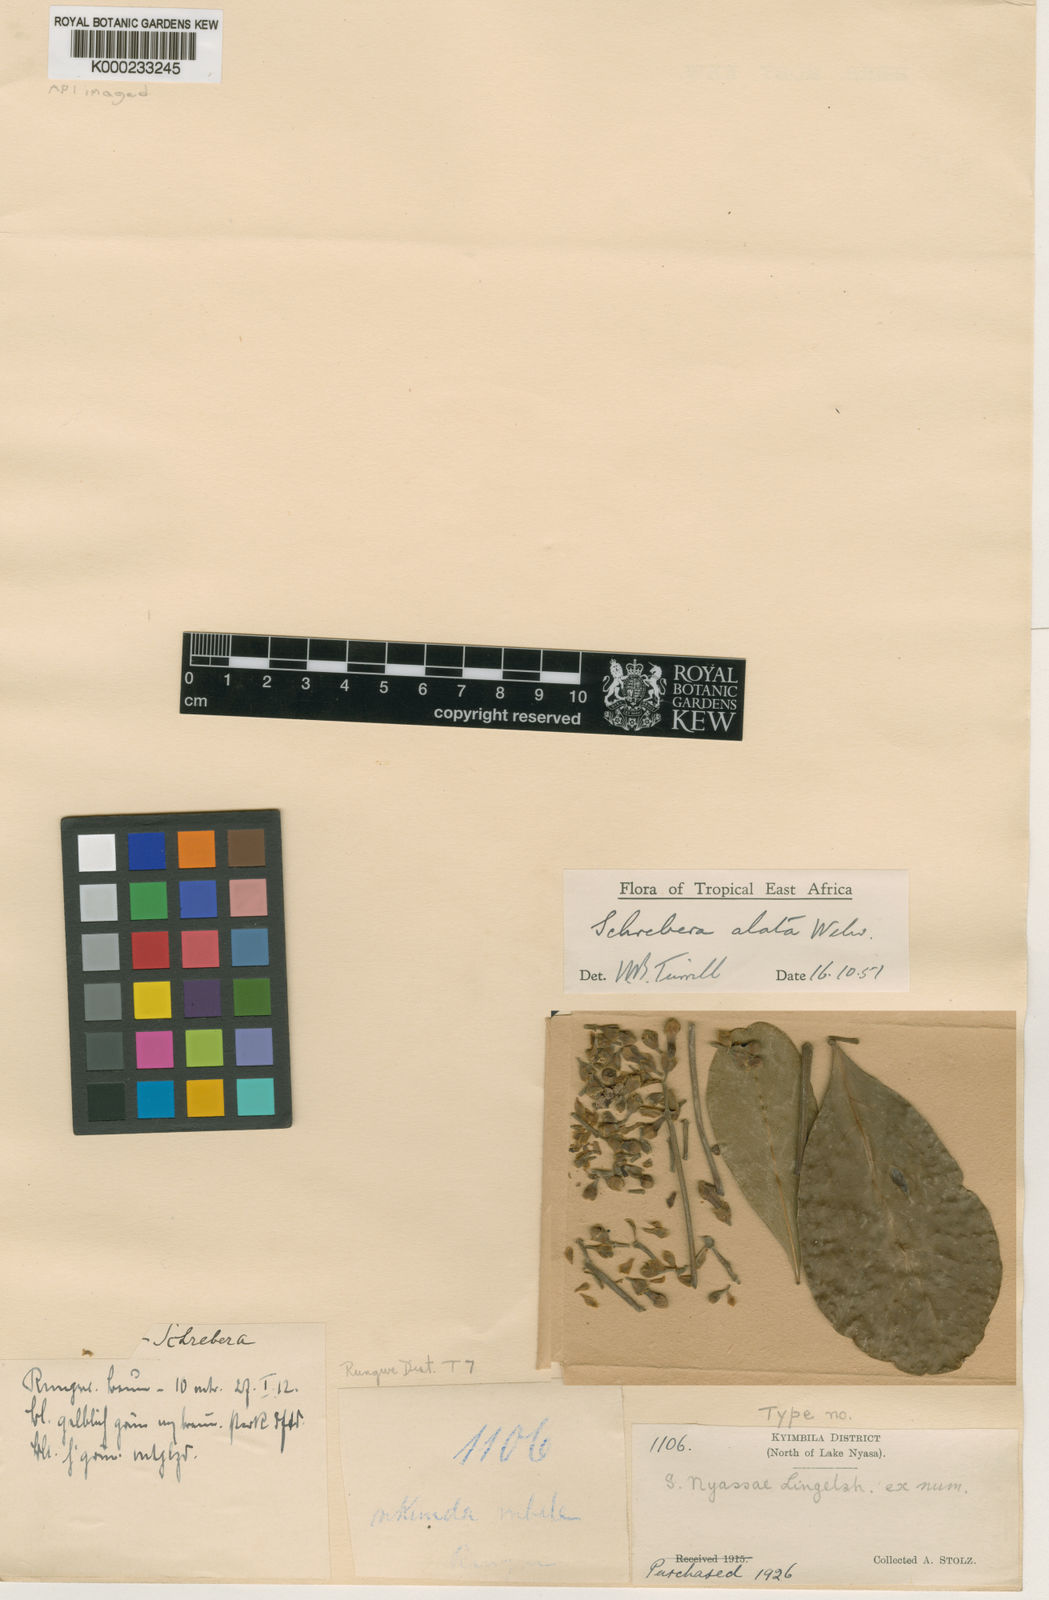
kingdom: Plantae
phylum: Tracheophyta
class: Magnoliopsida
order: Lamiales
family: Oleaceae
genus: Schrebera
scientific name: Schrebera alata
